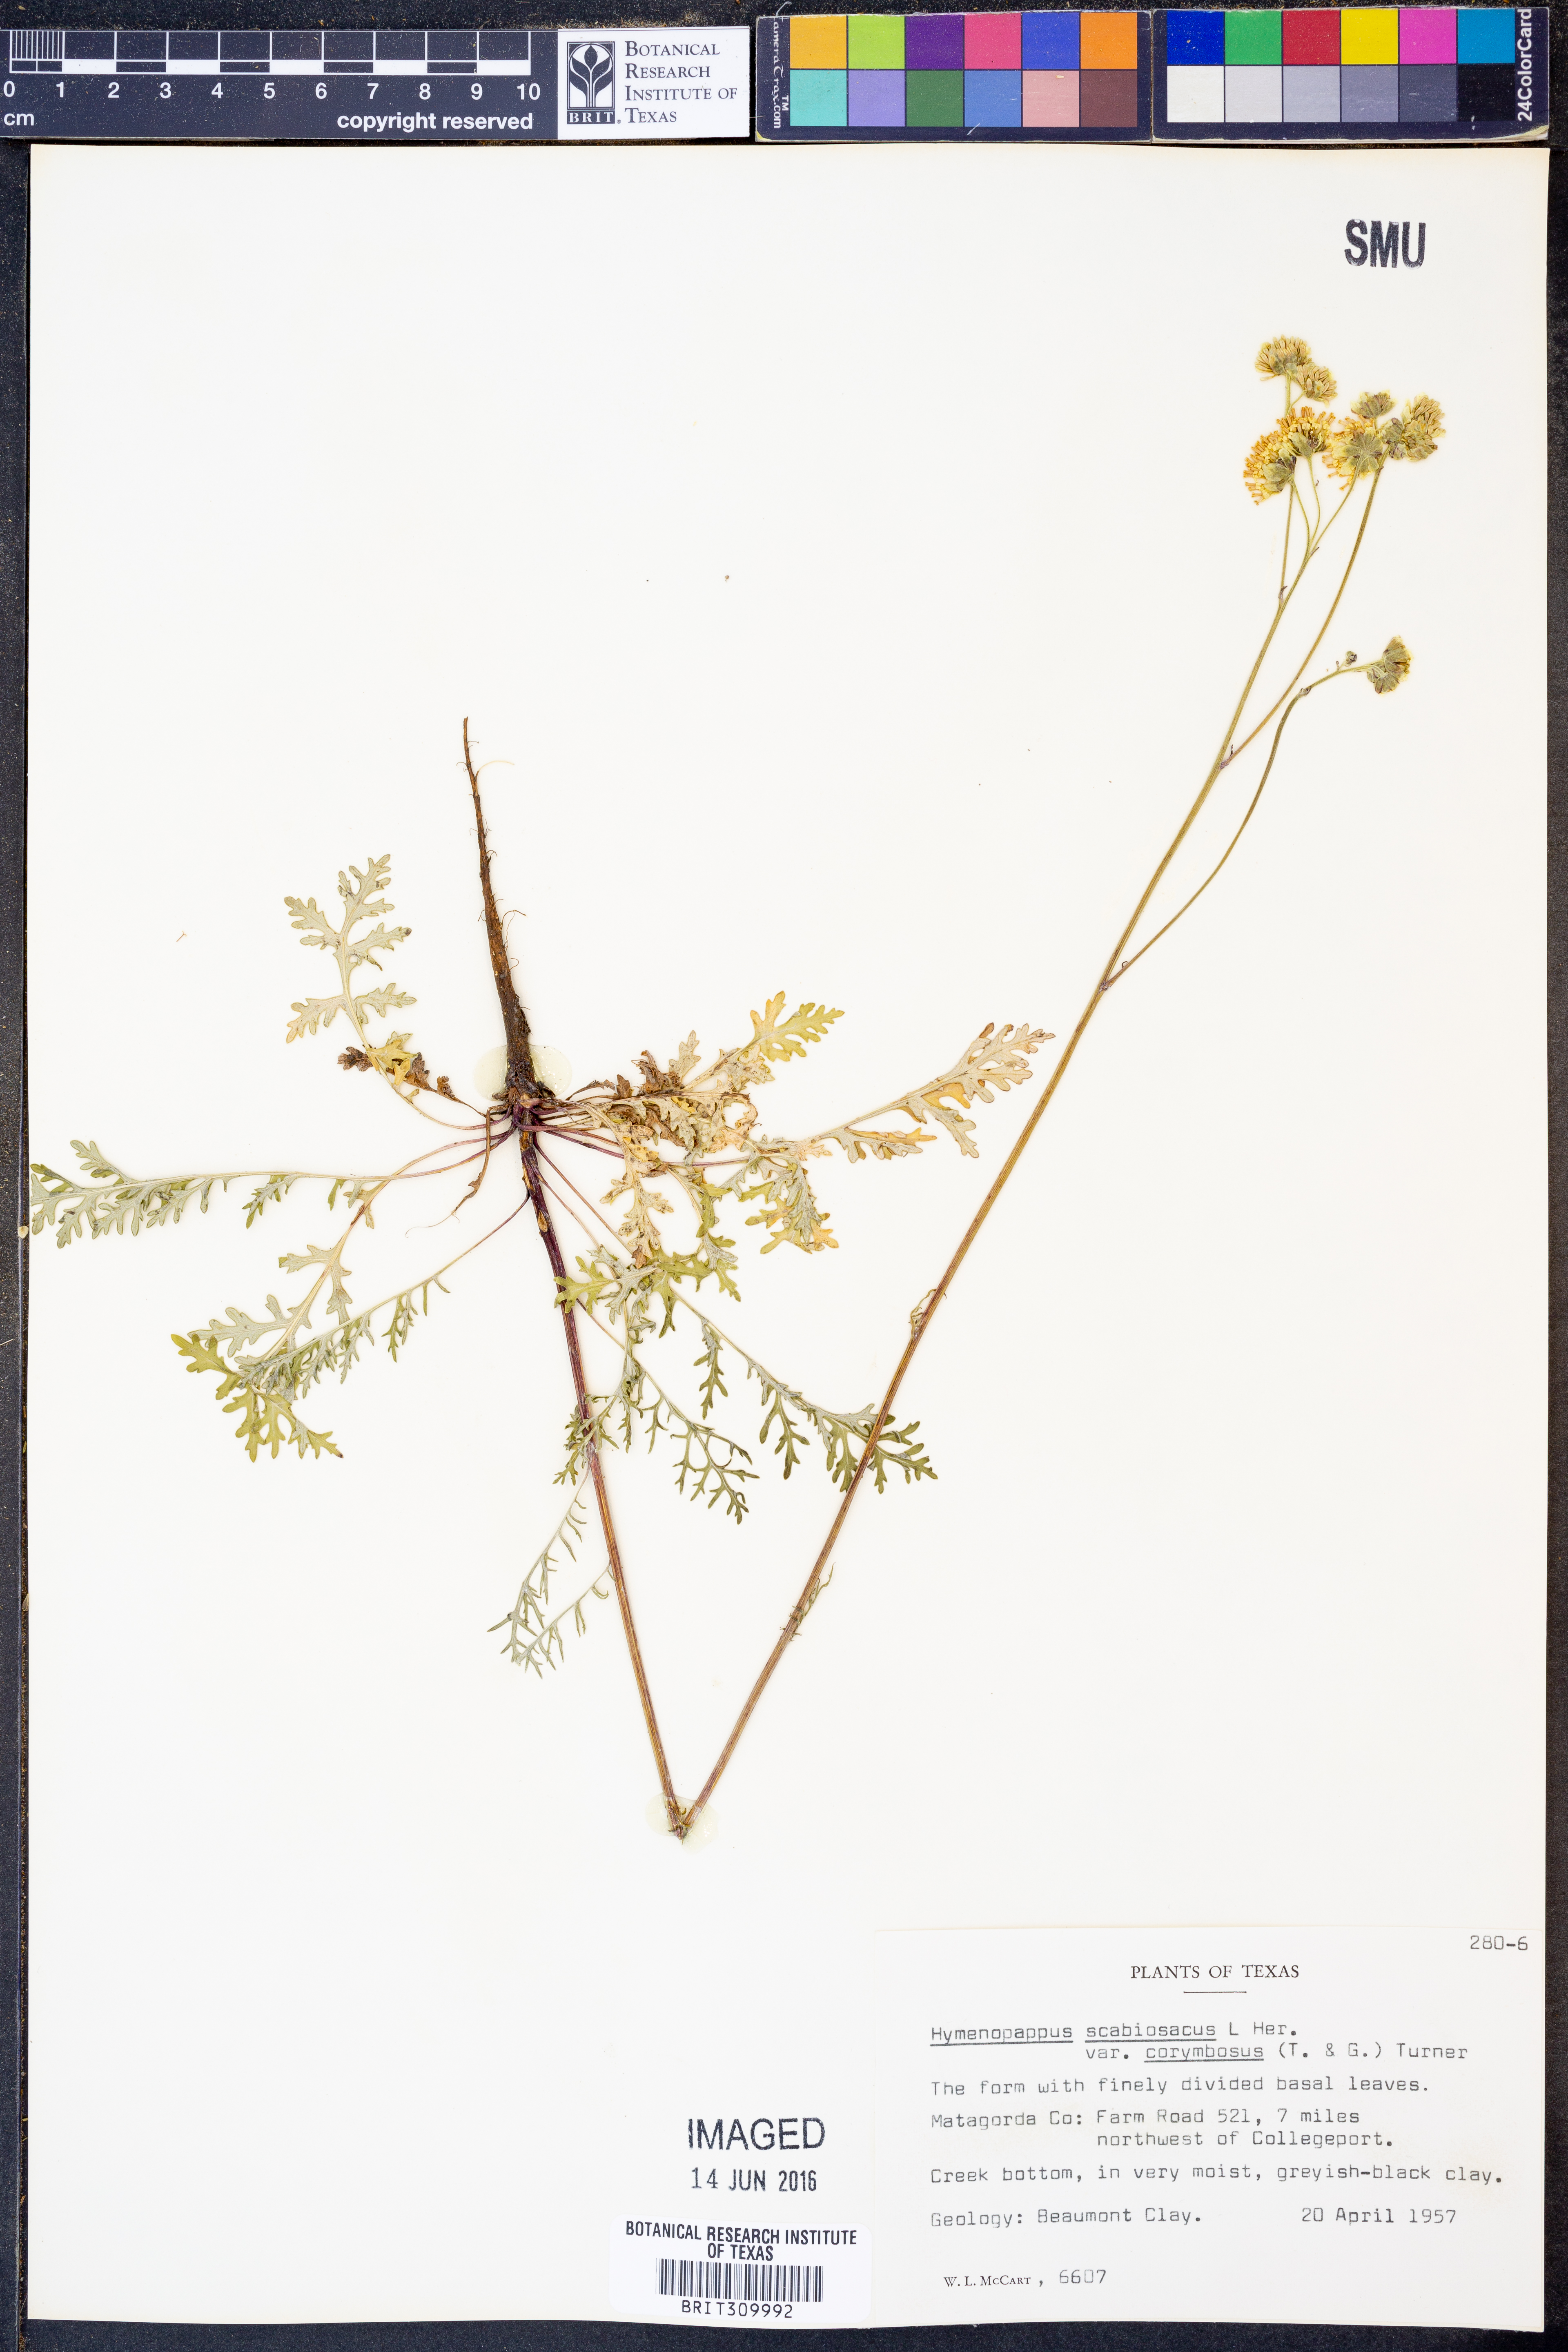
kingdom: Plantae
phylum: Tracheophyta
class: Magnoliopsida
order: Asterales
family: Asteraceae
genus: Hymenopappus
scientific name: Hymenopappus scabiosaeus
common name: Carolina woollywhite
